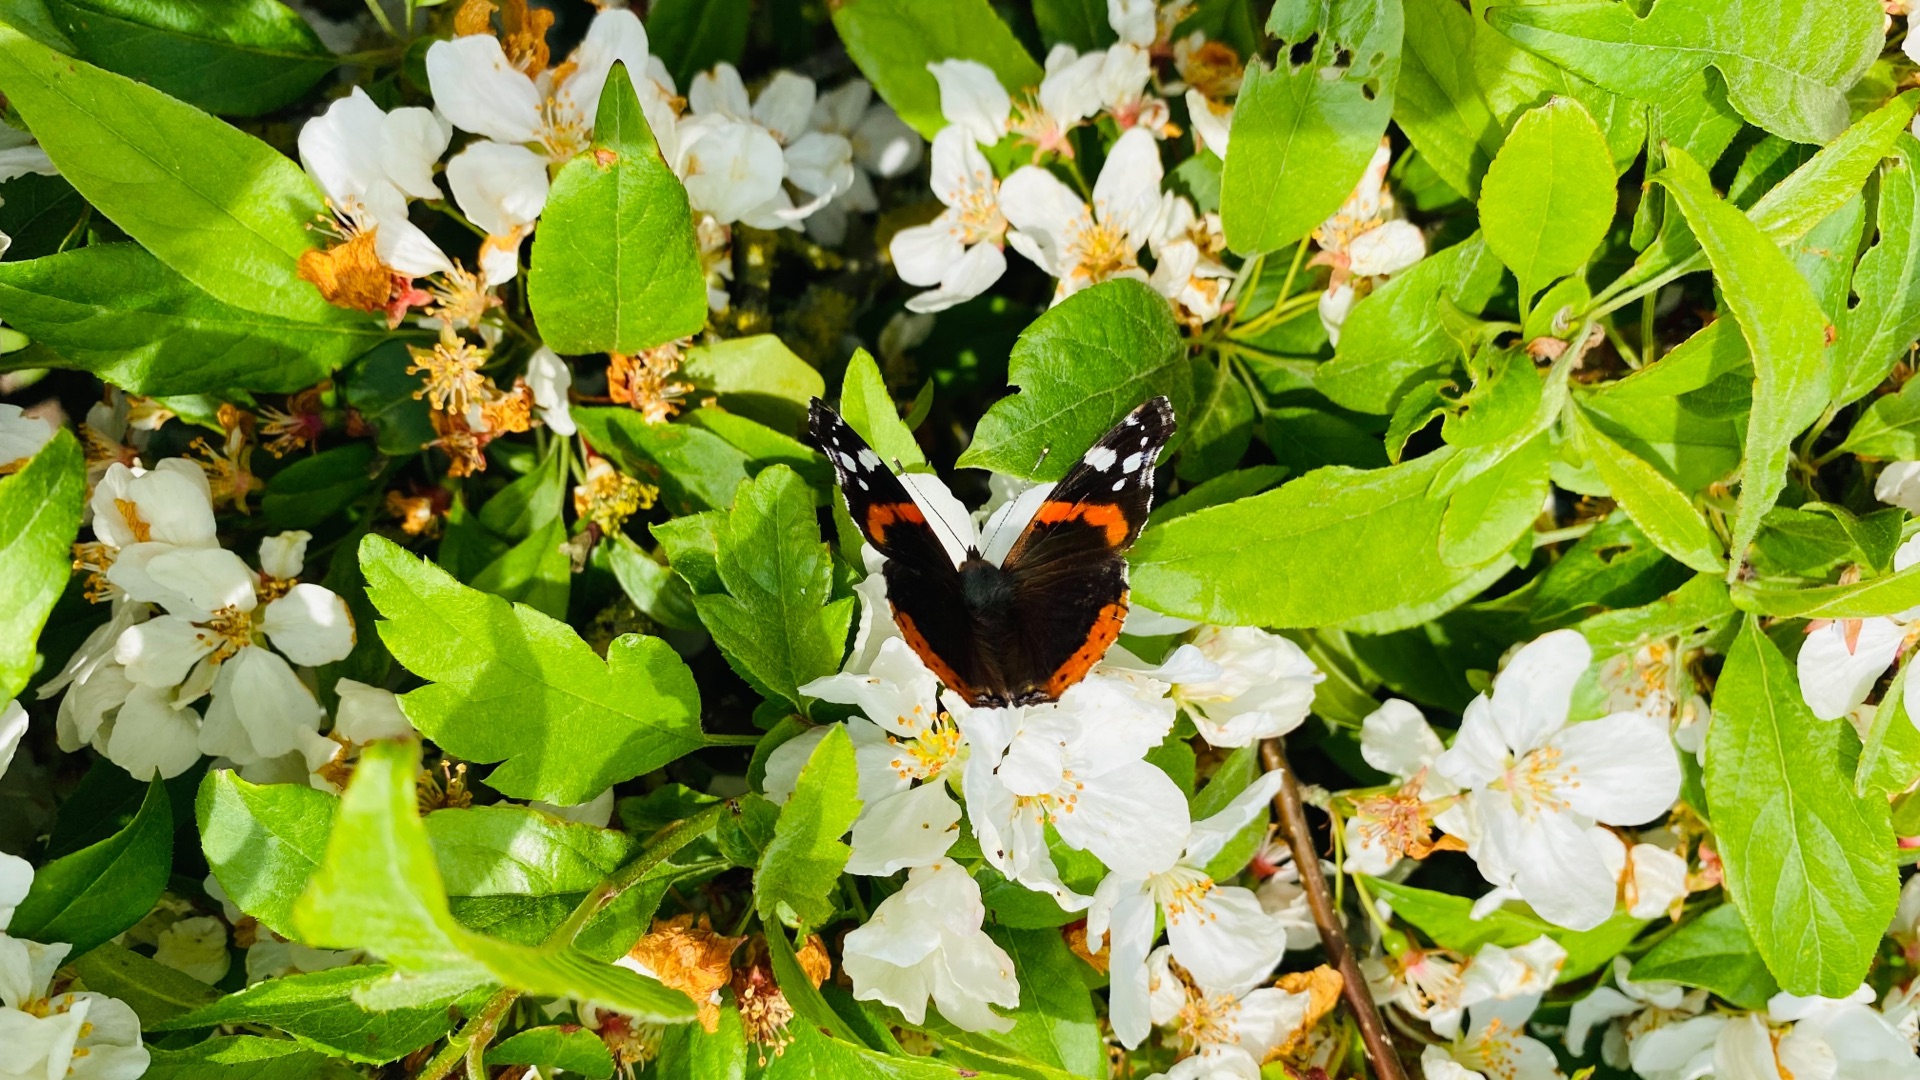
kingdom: Animalia
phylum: Arthropoda
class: Insecta
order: Lepidoptera
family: Nymphalidae
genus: Vanessa
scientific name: Vanessa atalanta
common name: Admiral
